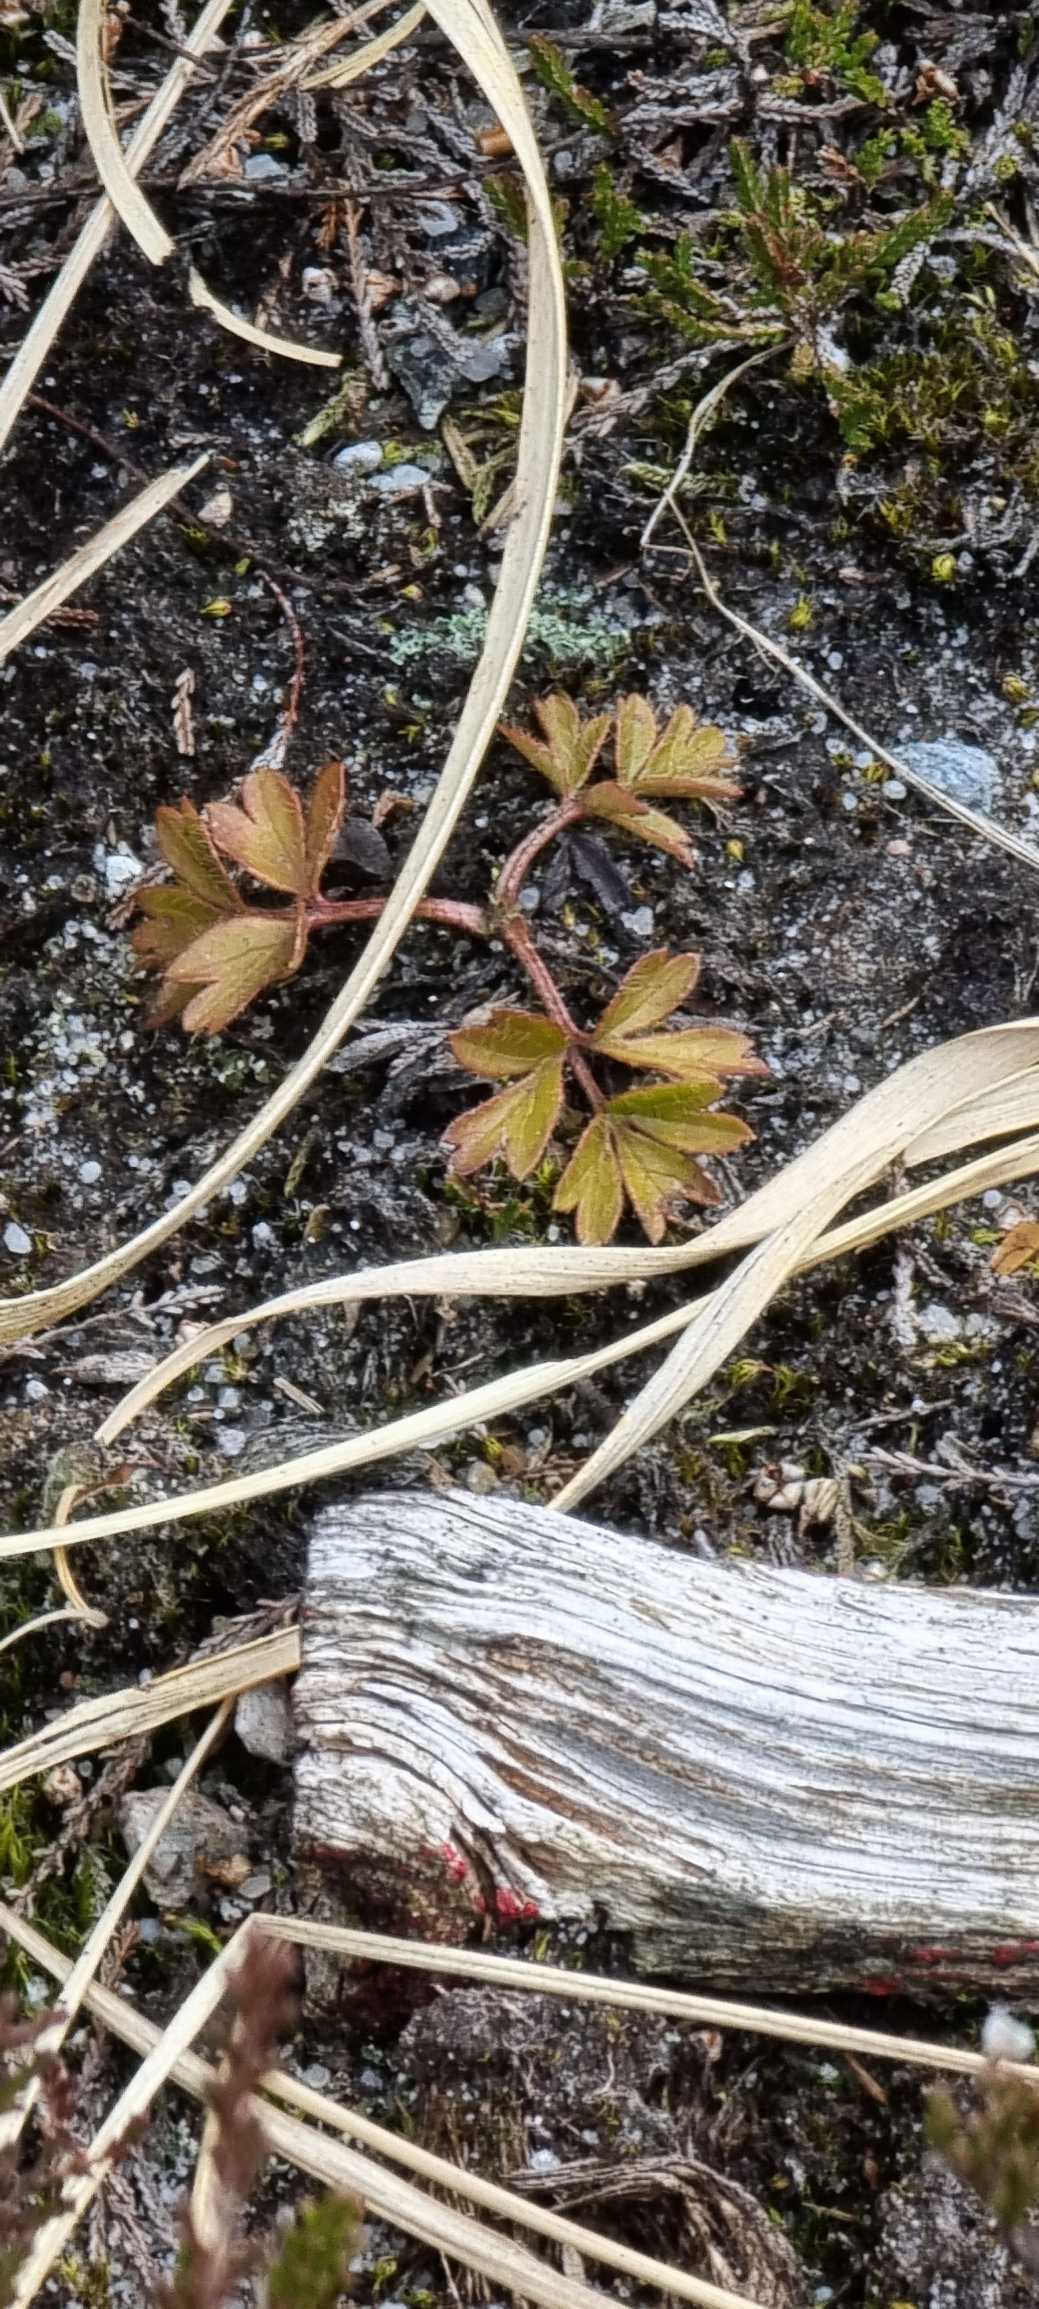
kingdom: Plantae
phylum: Tracheophyta
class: Magnoliopsida
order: Ranunculales
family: Ranunculaceae
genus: Pulsatilla
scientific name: Pulsatilla vernalis
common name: Vår-kobjælde
